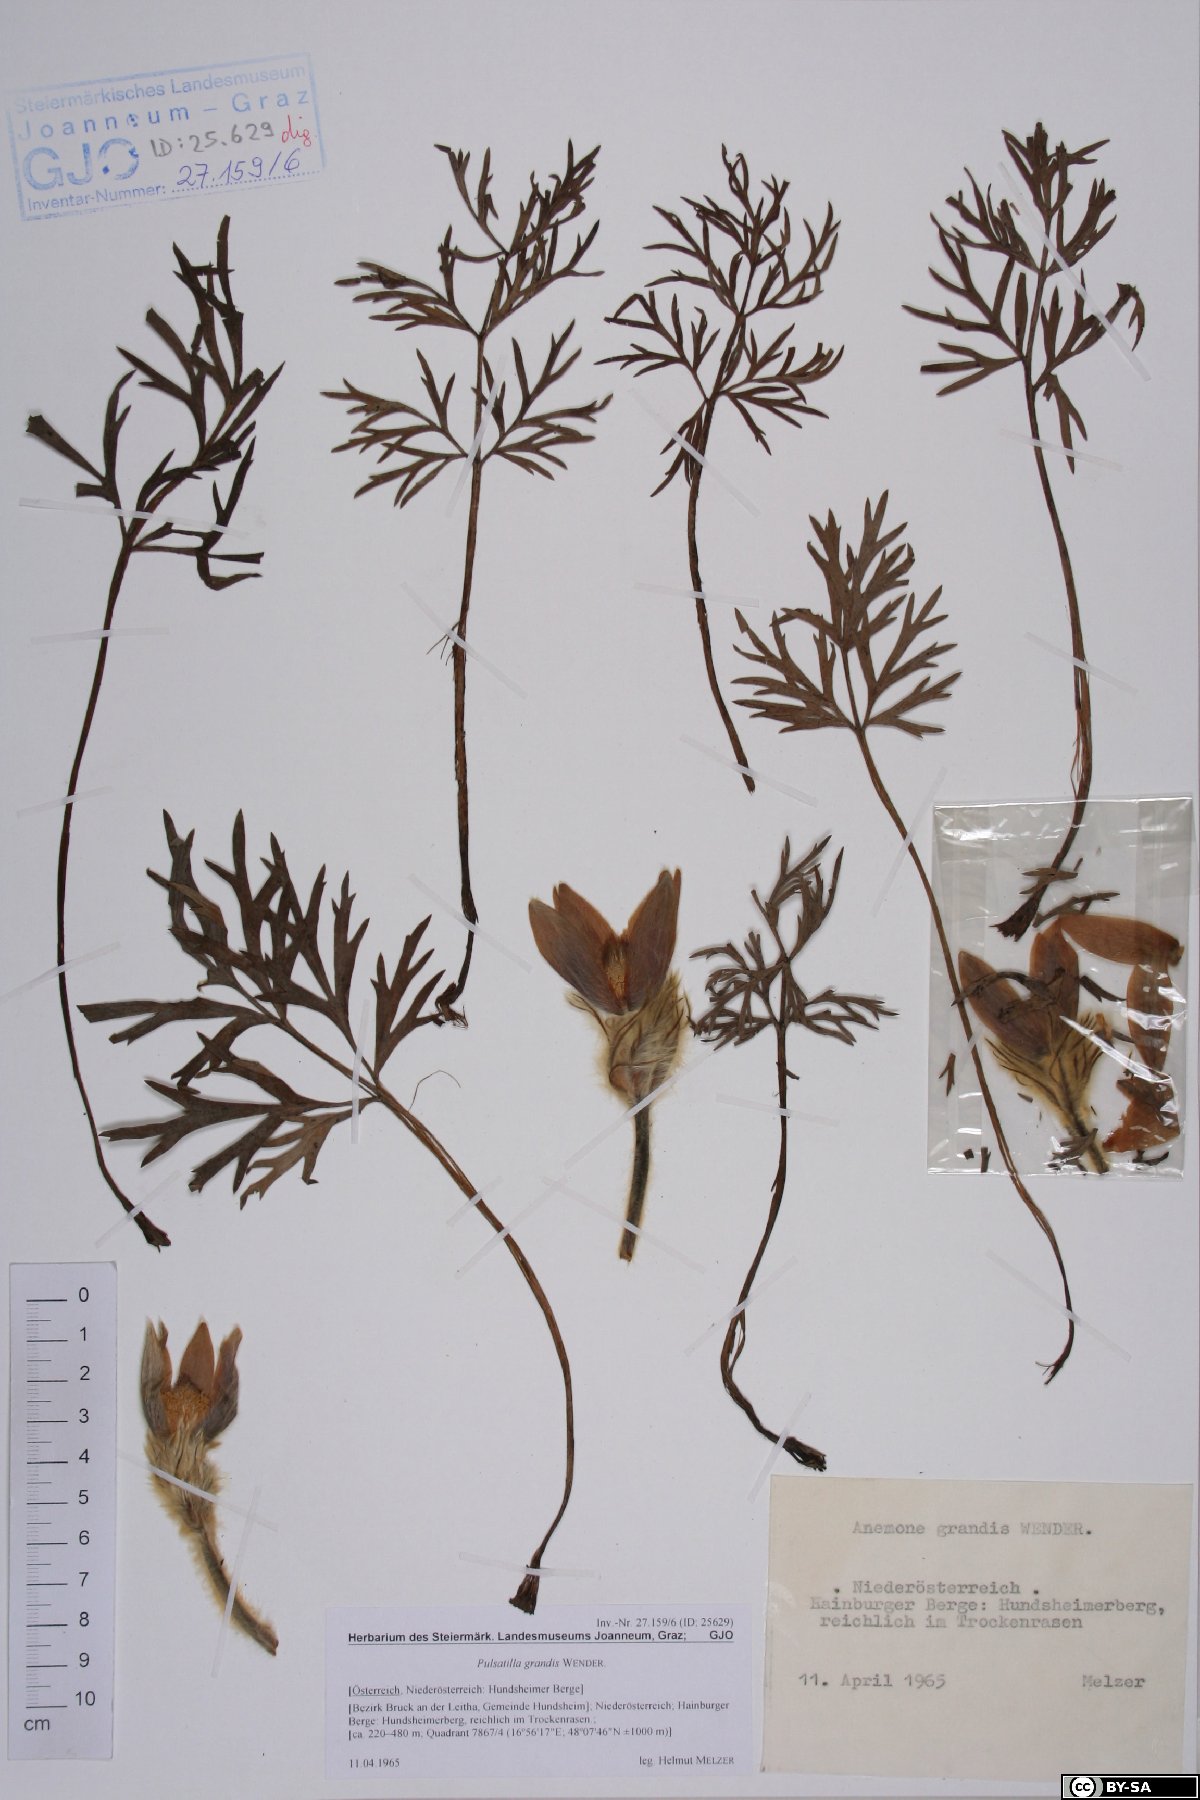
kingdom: Plantae
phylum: Tracheophyta
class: Magnoliopsida
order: Ranunculales
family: Ranunculaceae
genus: Pulsatilla
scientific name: Pulsatilla grandis
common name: Greater pasque flower
